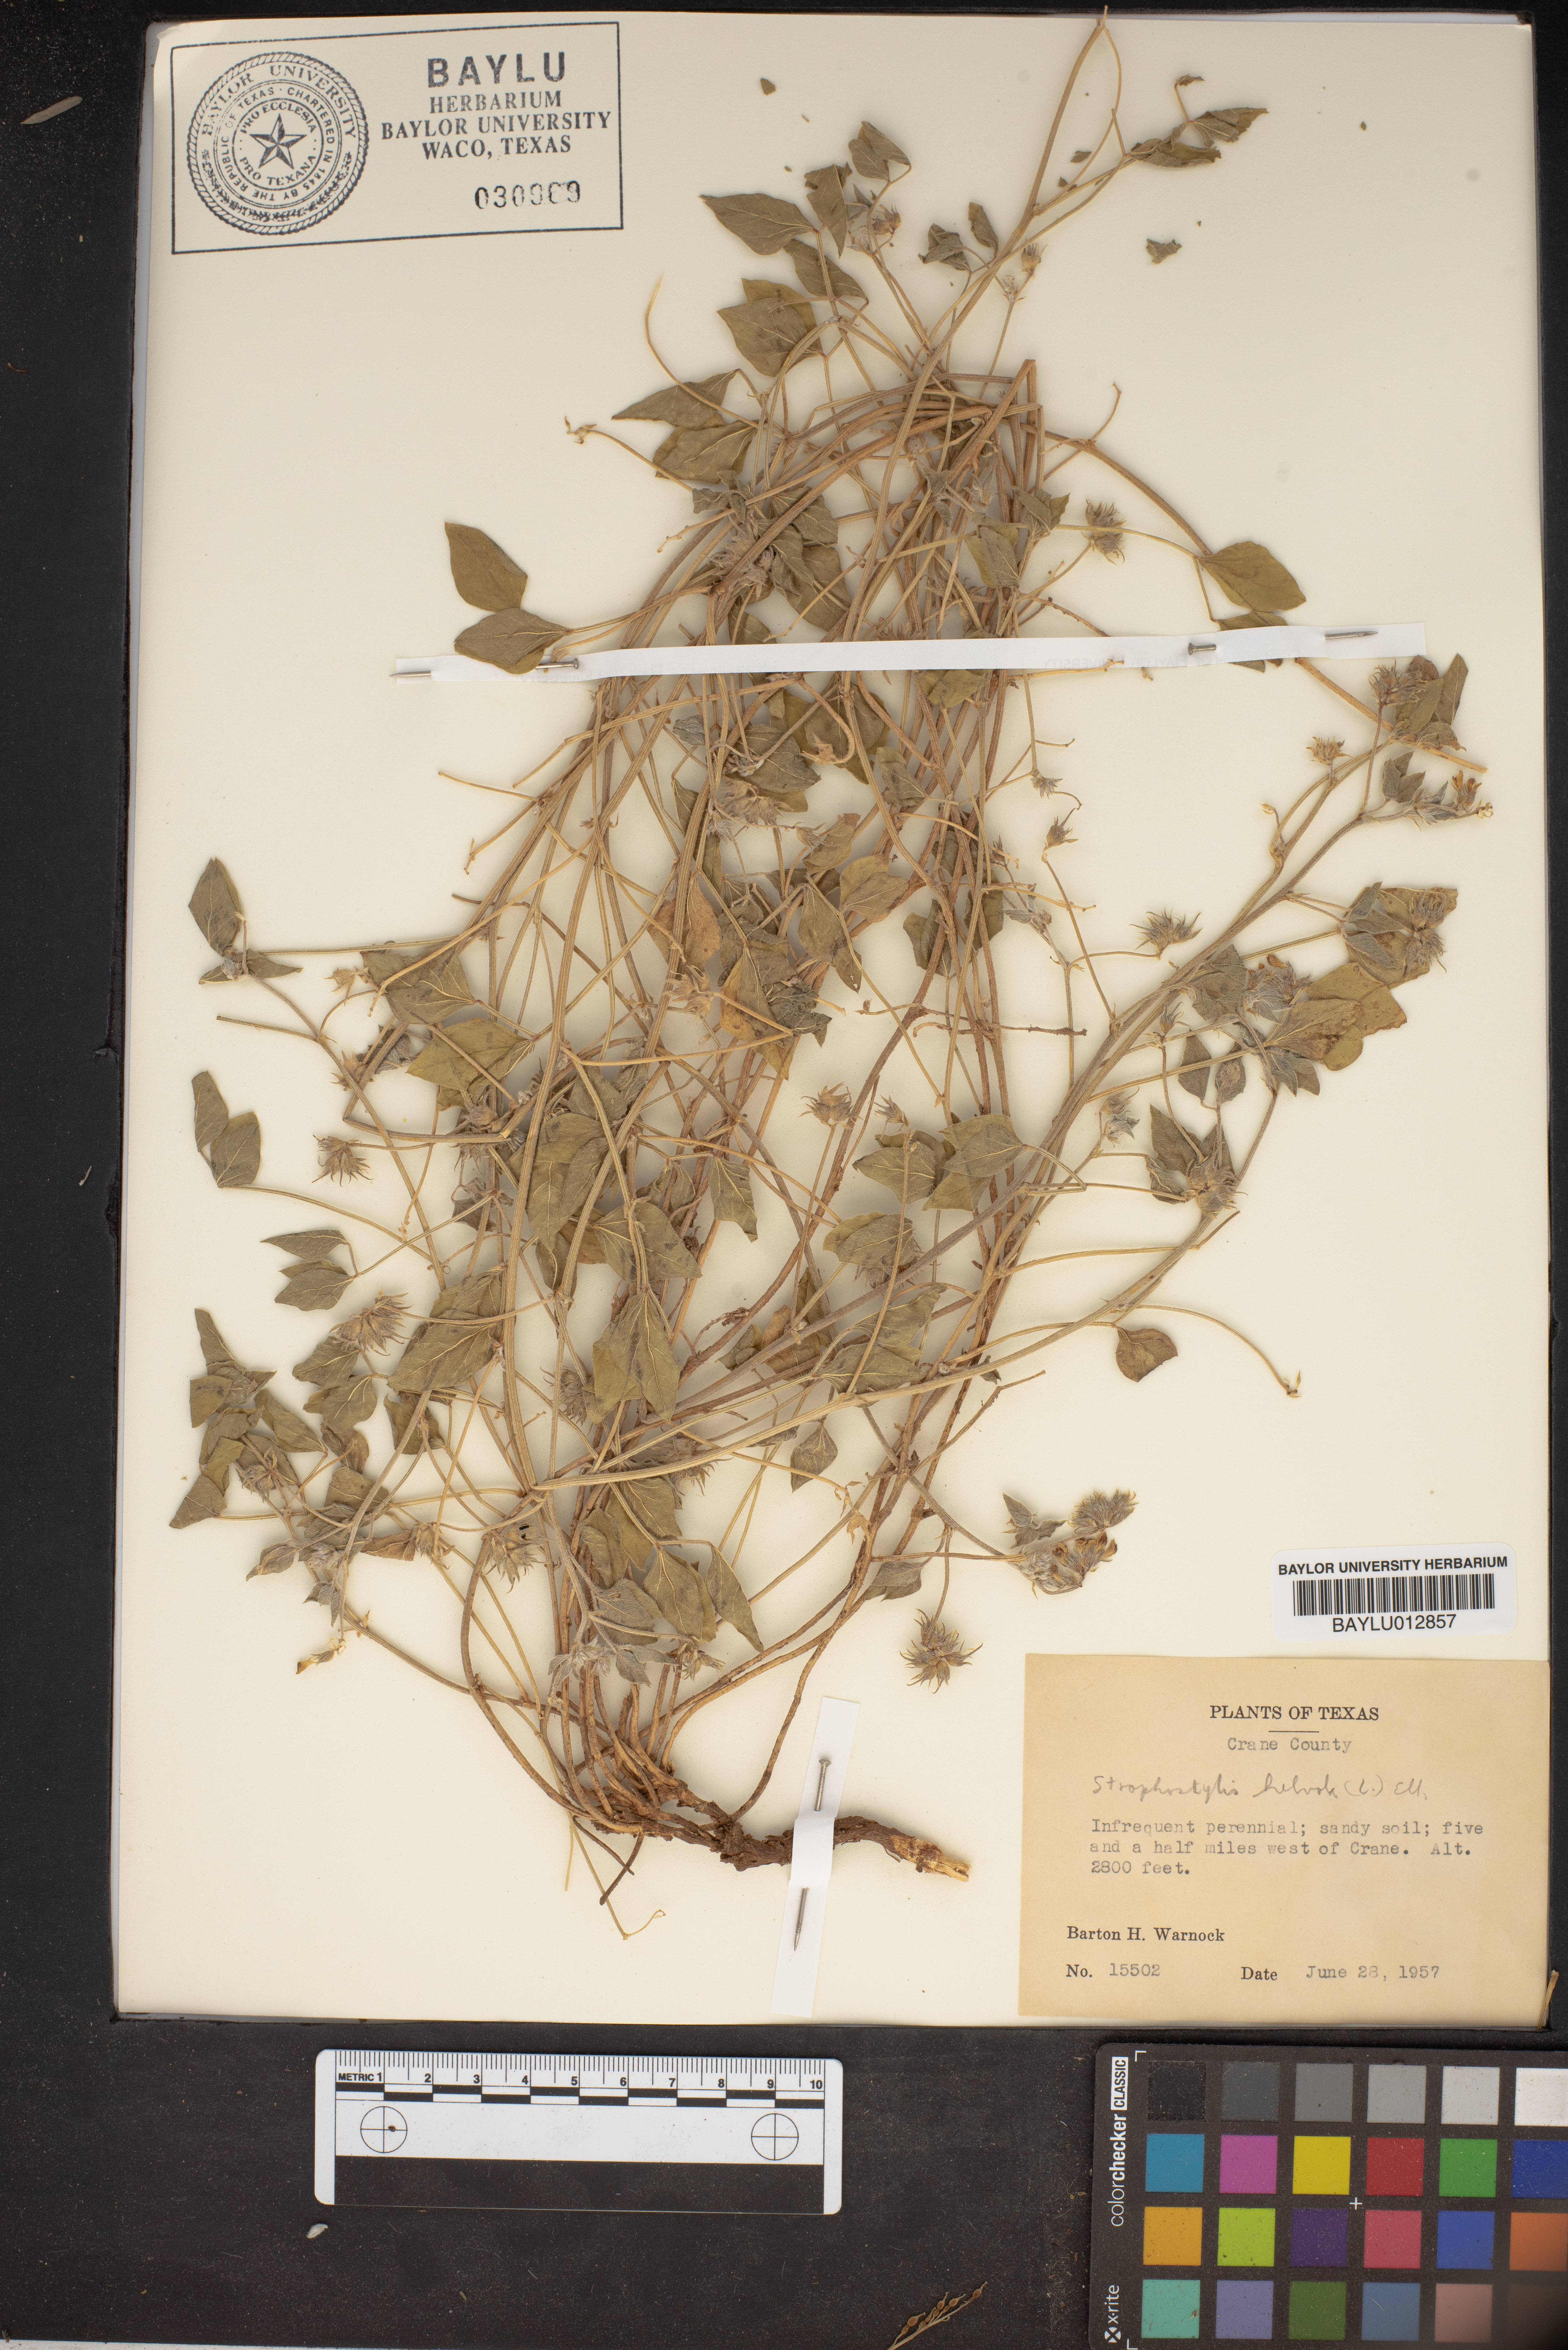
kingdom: Plantae
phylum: Tracheophyta
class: Magnoliopsida
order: Fabales
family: Fabaceae
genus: Strophostyles
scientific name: Strophostyles helvola
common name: Trailing wild bean
